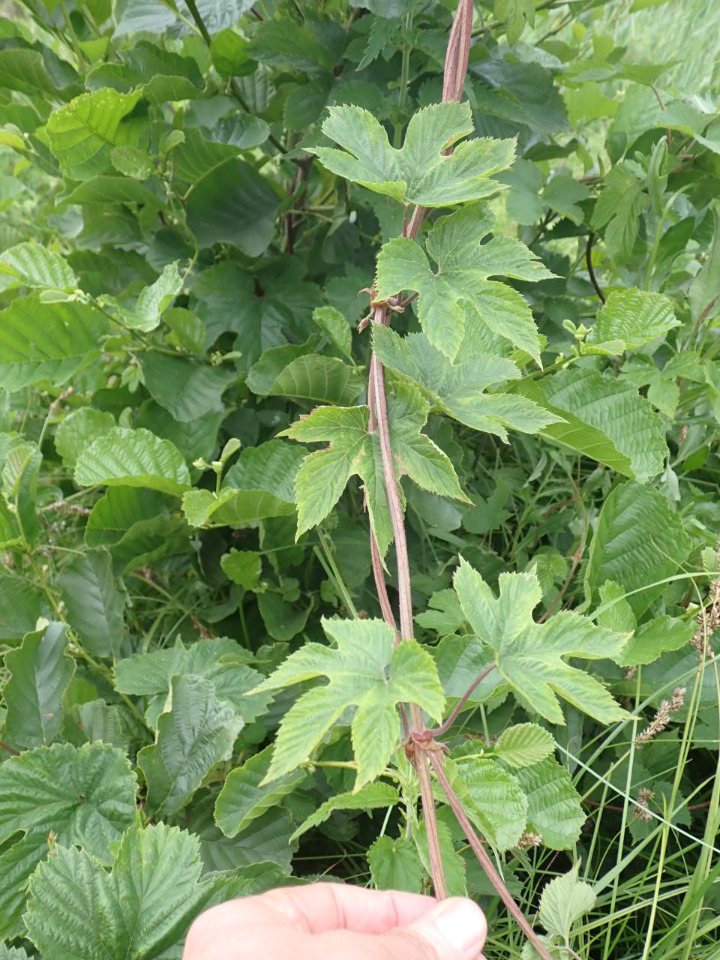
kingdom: Plantae
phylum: Tracheophyta
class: Magnoliopsida
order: Rosales
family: Cannabaceae
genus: Humulus
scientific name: Humulus lupulus
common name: Humle
